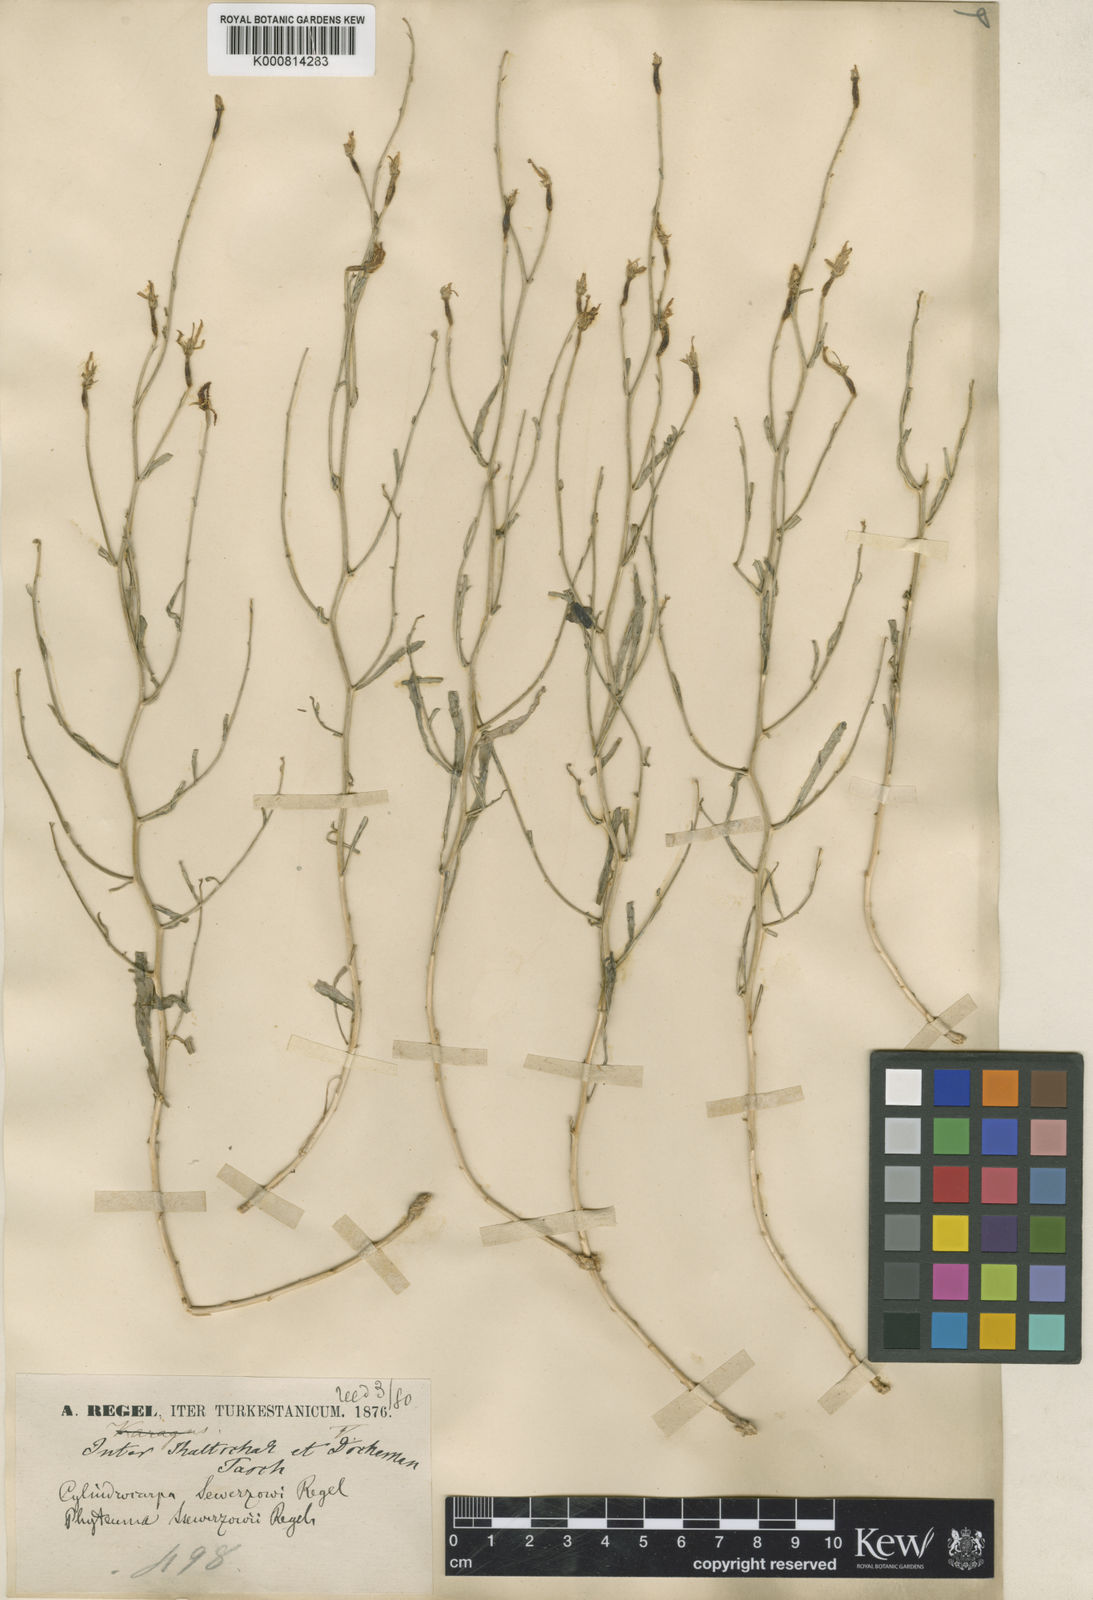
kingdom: Plantae
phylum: Tracheophyta
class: Magnoliopsida
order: Asterales
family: Campanulaceae
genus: Cylindrocarpa
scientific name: Cylindrocarpa sewerzowii
